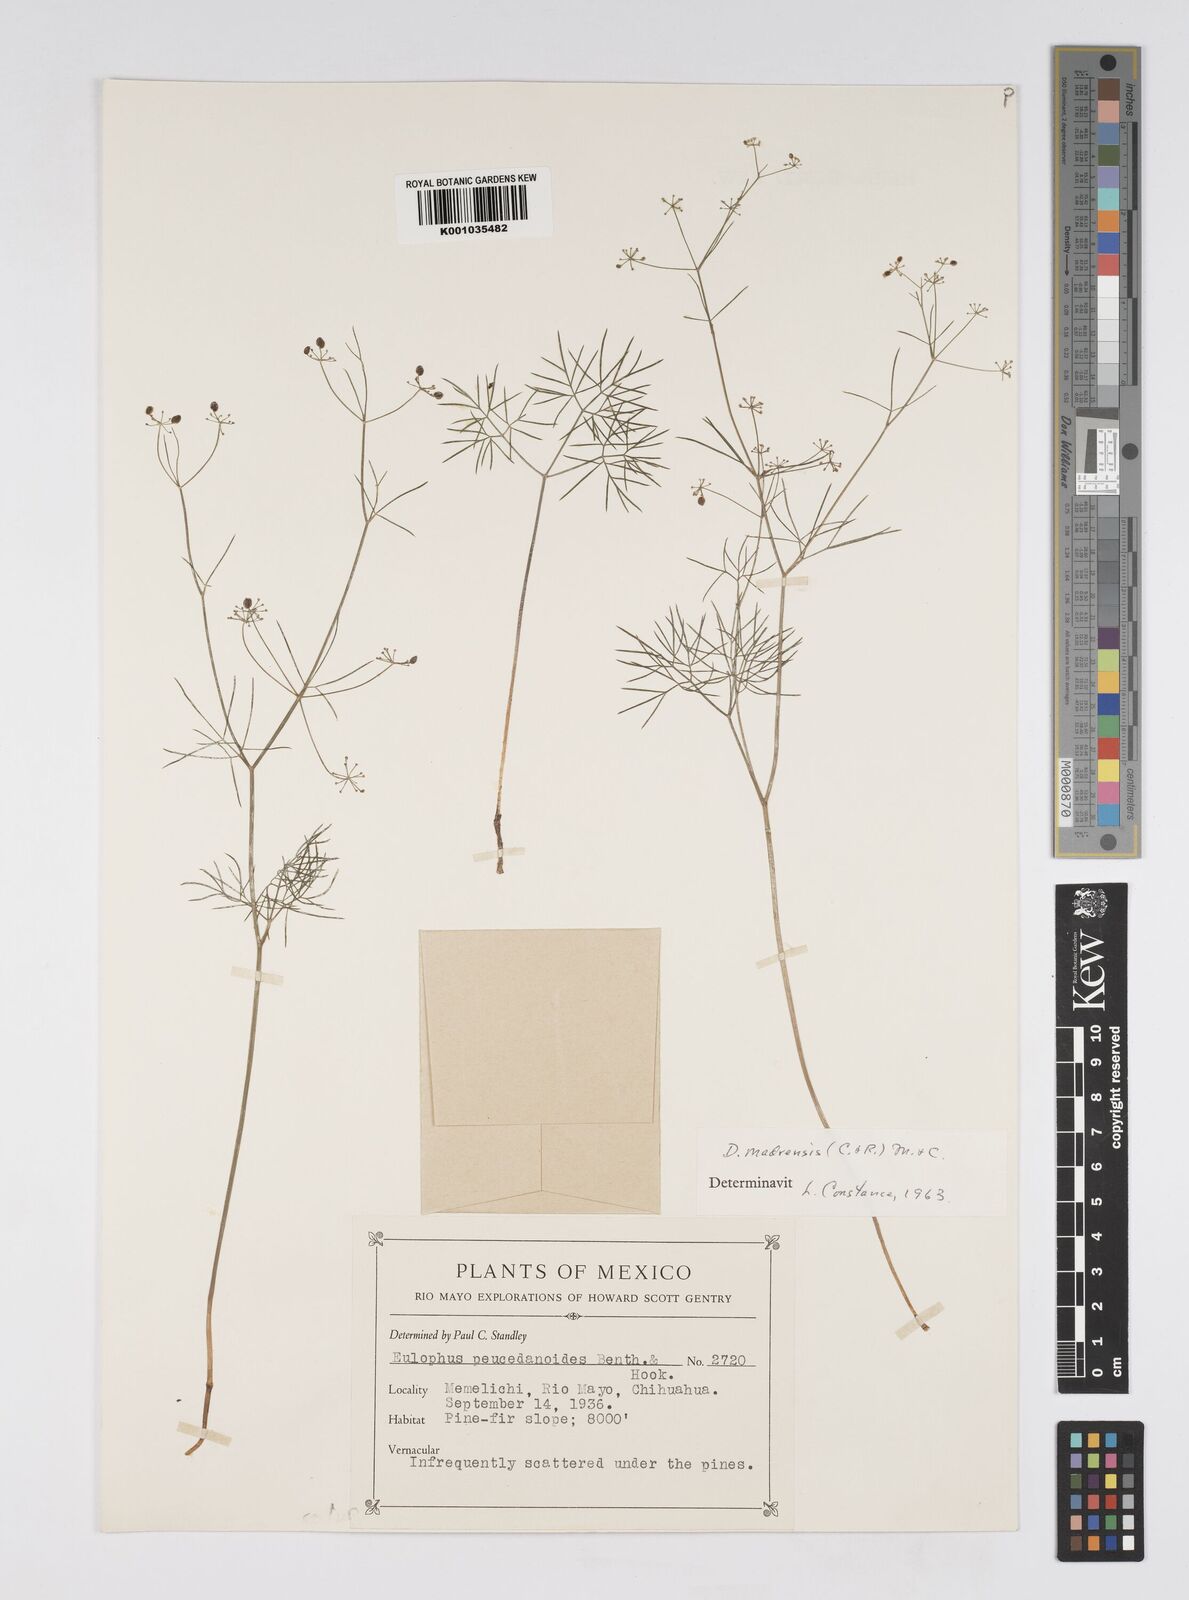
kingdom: Plantae
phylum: Tracheophyta
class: Magnoliopsida
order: Apiales
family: Apiaceae
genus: Donnellsmithia
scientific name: Donnellsmithia madrensis
